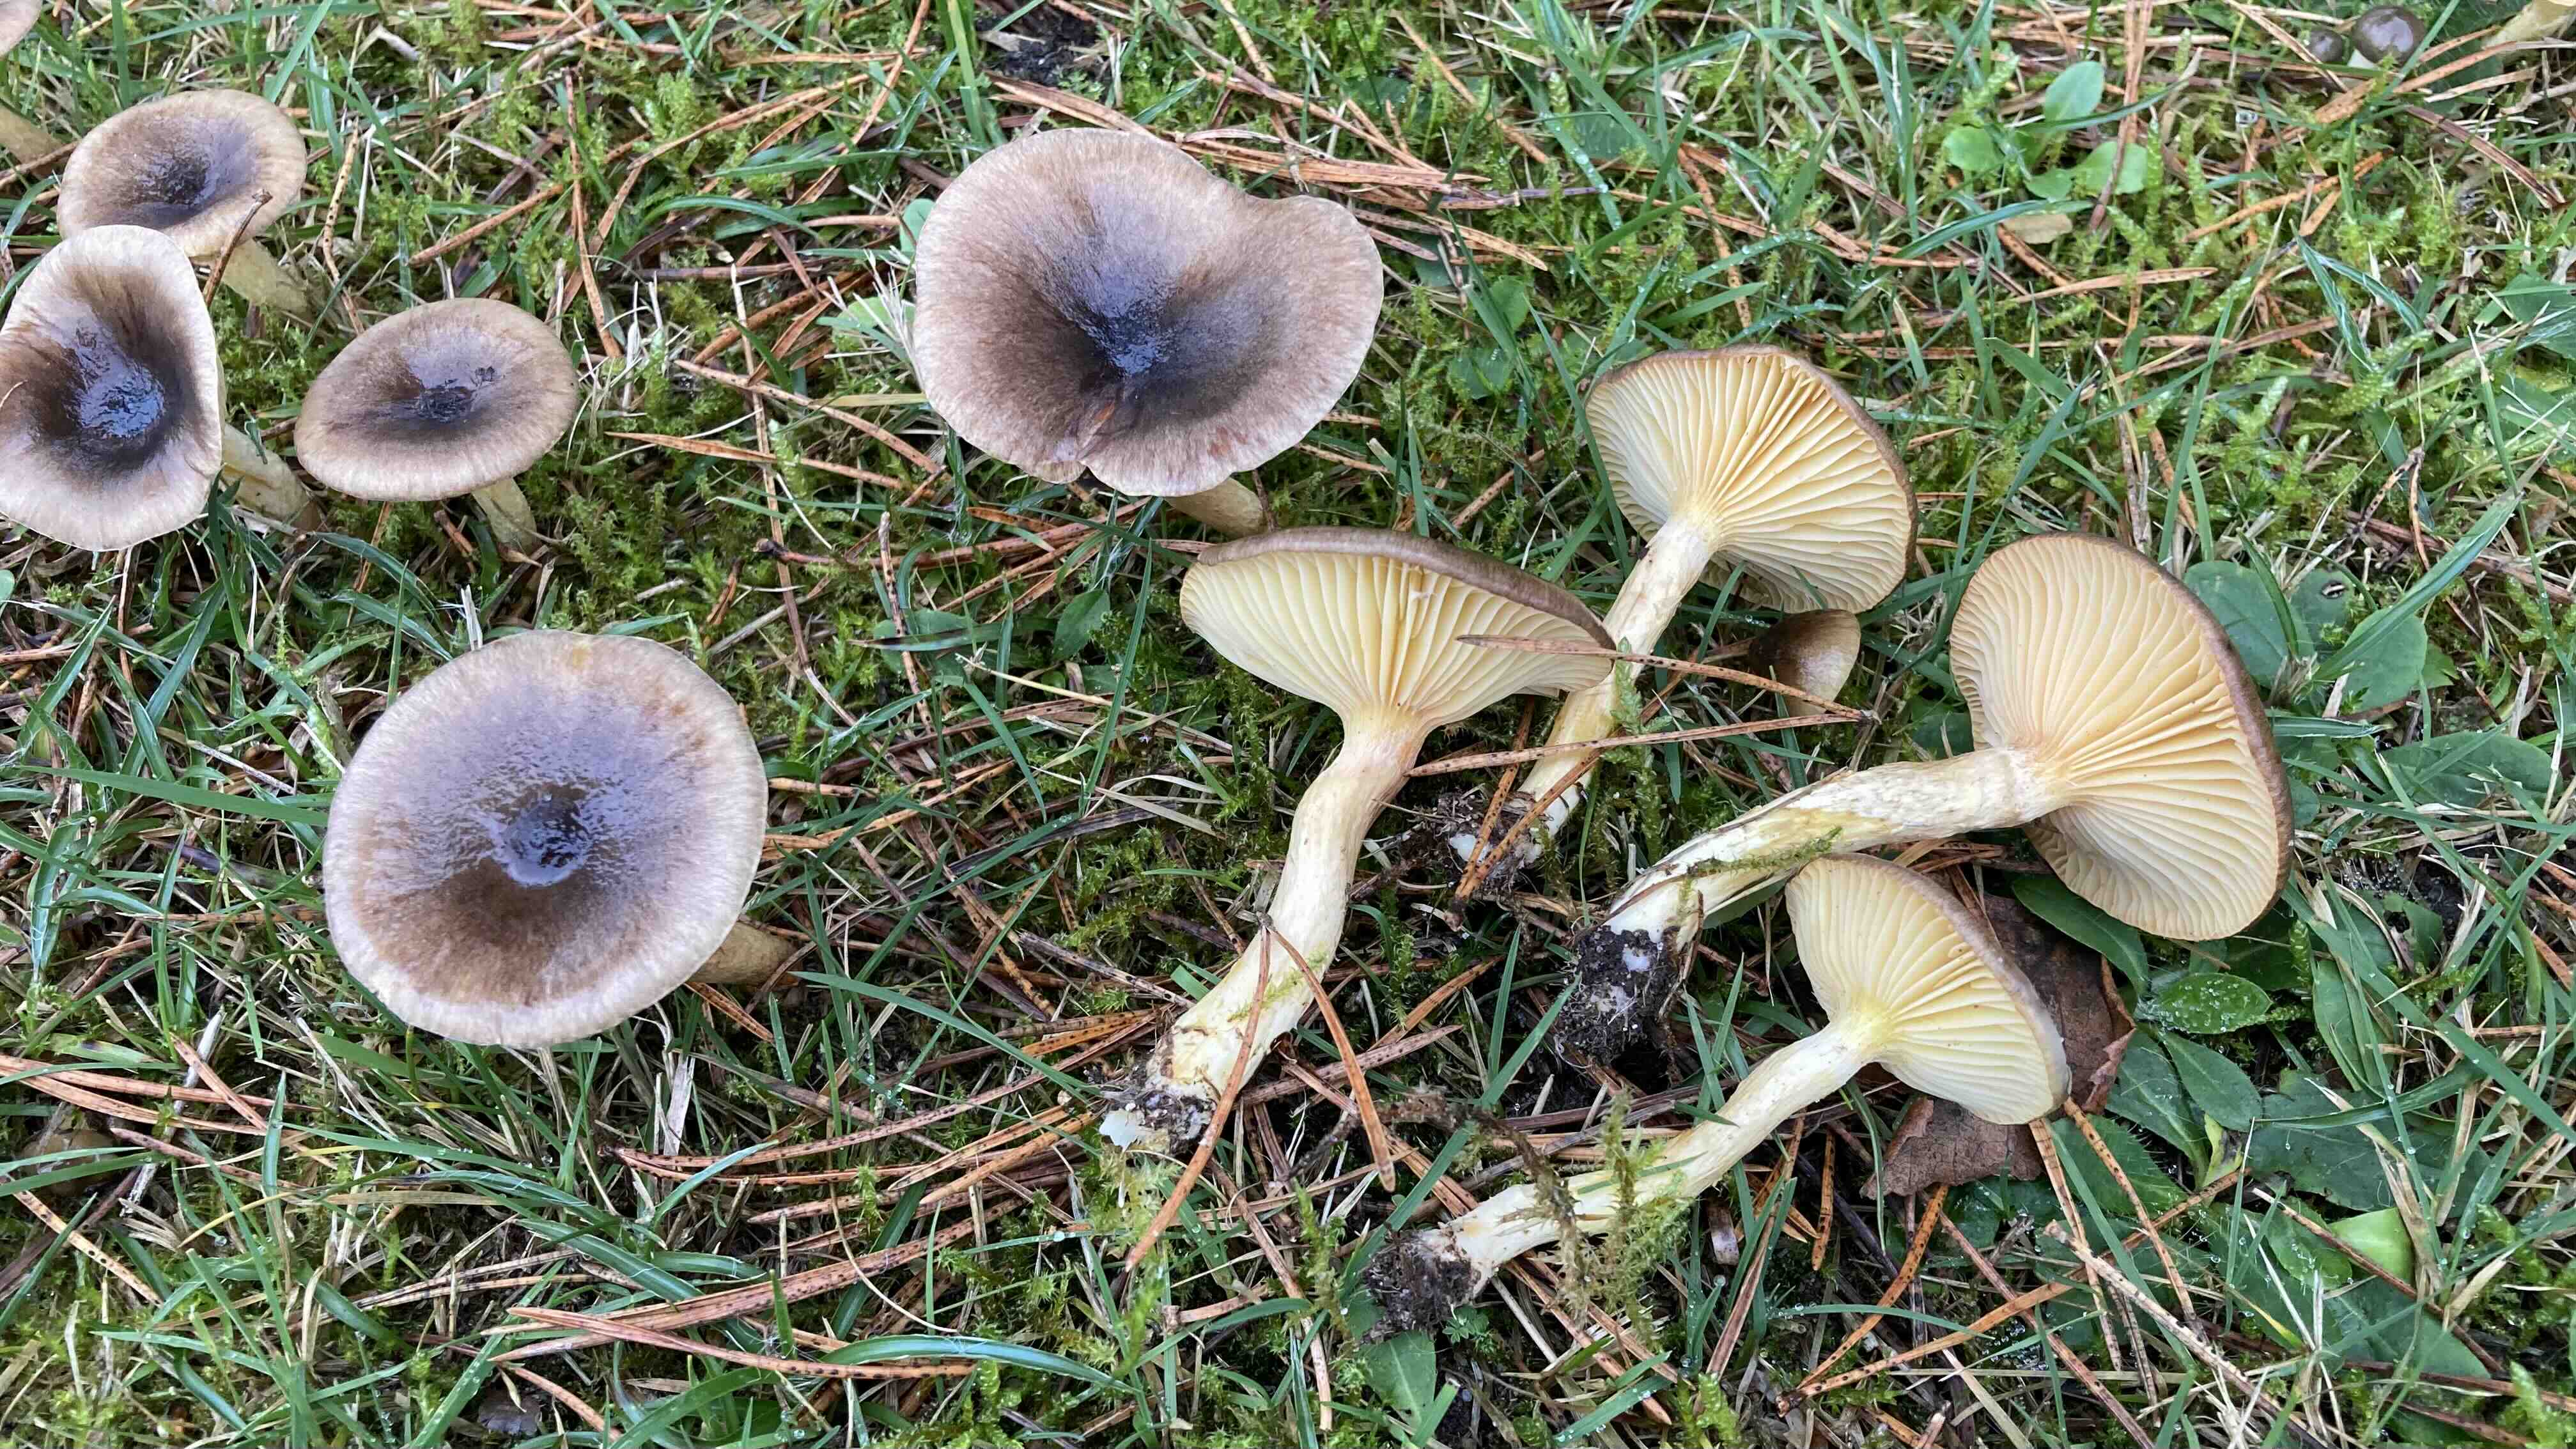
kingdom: Fungi
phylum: Basidiomycota
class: Agaricomycetes
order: Agaricales
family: Hygrophoraceae
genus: Hygrophorus
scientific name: Hygrophorus hypothejus
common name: frost-sneglehat
